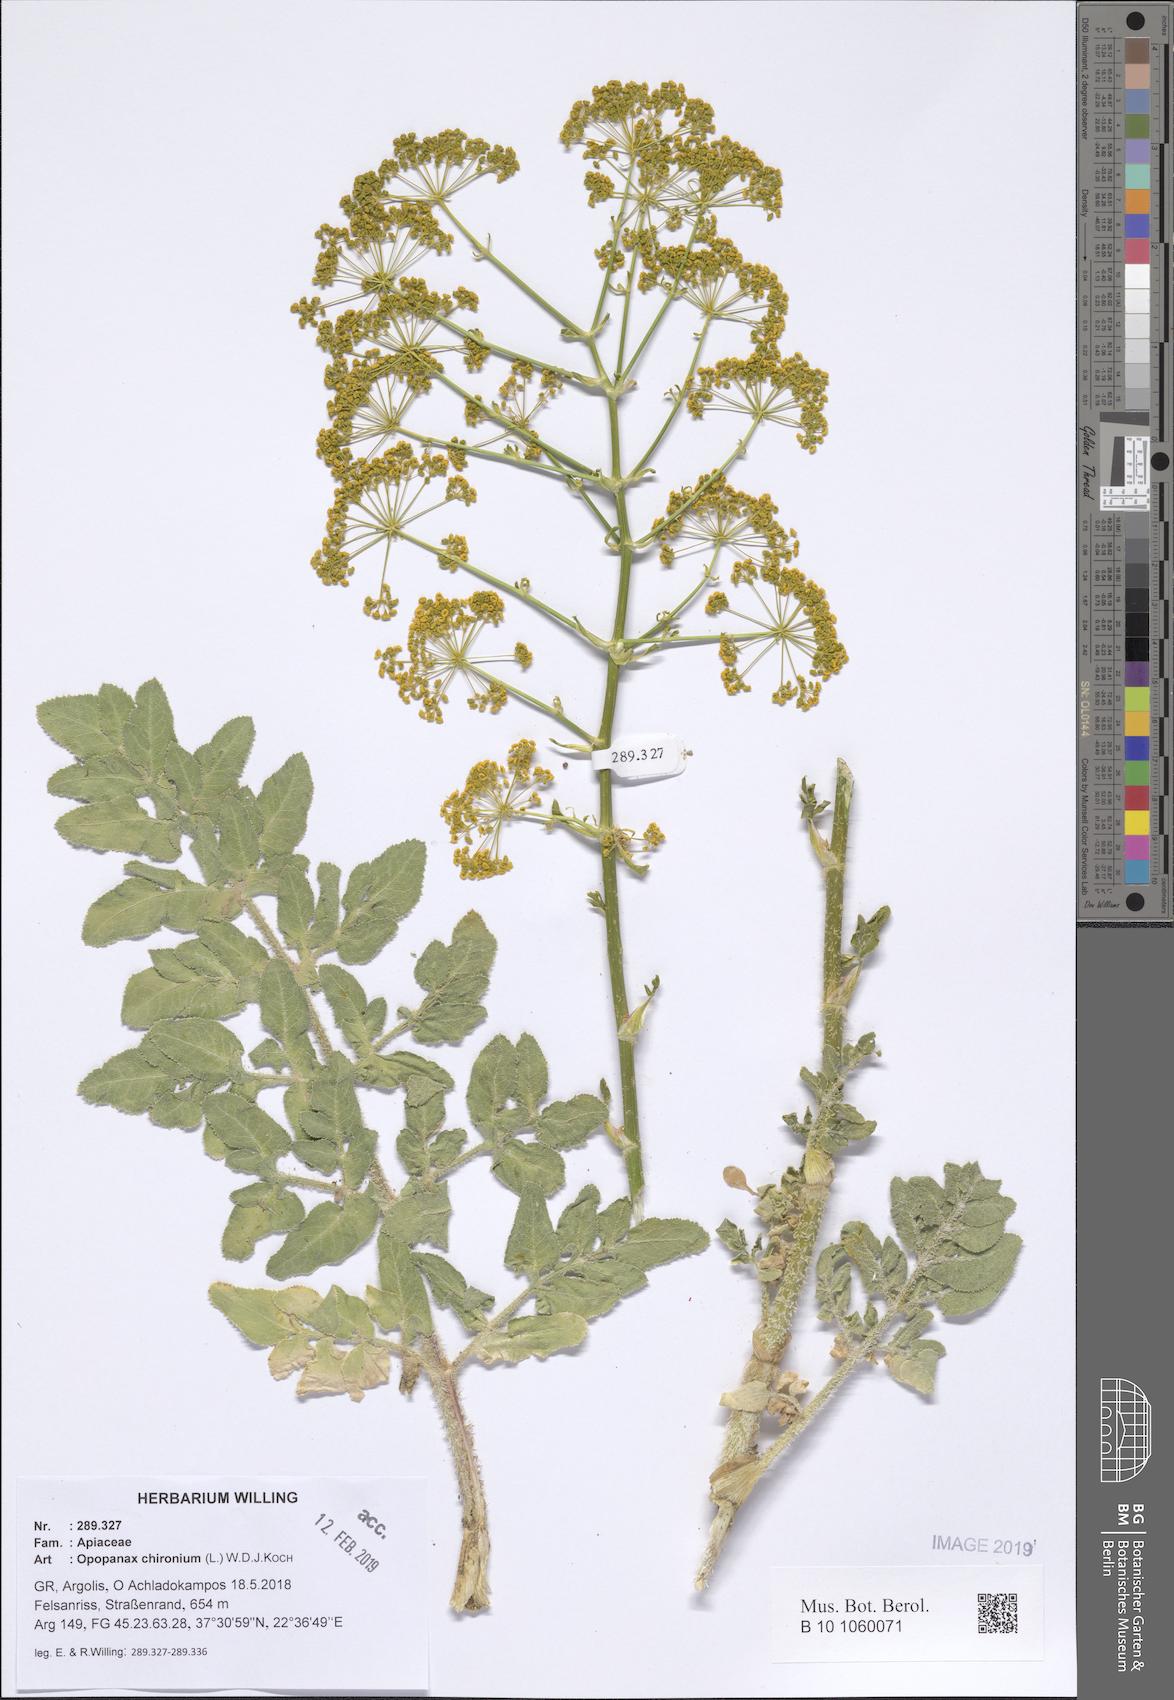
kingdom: Plantae
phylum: Tracheophyta
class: Magnoliopsida
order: Apiales
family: Apiaceae
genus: Opopanax
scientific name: Opopanax chironium
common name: Hercules-all-heal
